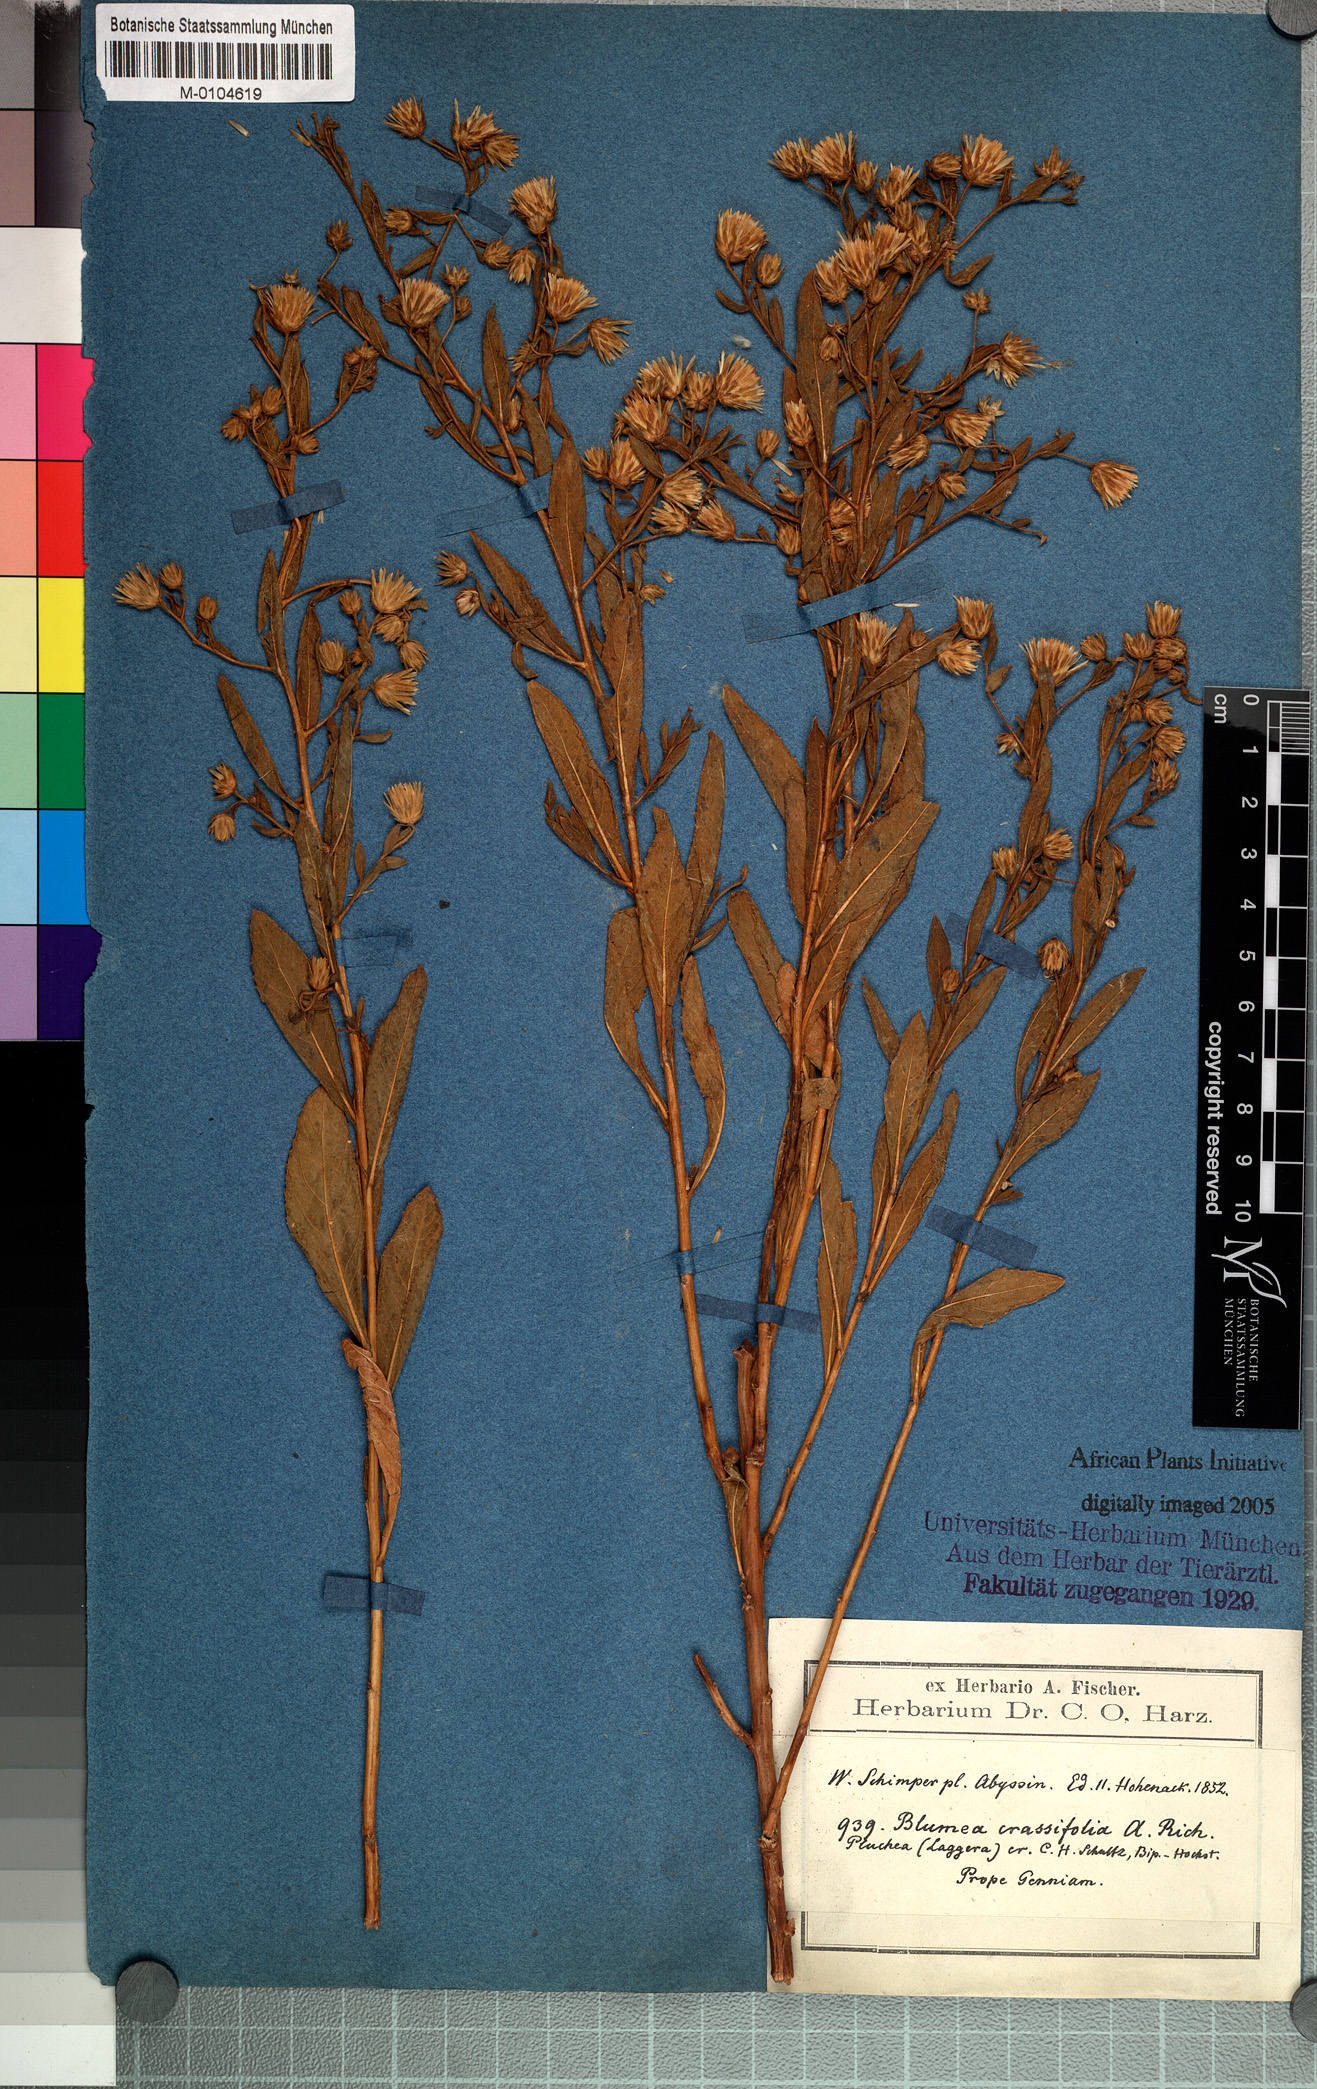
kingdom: Plantae
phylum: Tracheophyta
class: Magnoliopsida
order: Asterales
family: Asteraceae
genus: Laggera
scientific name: Laggera crassifolia
